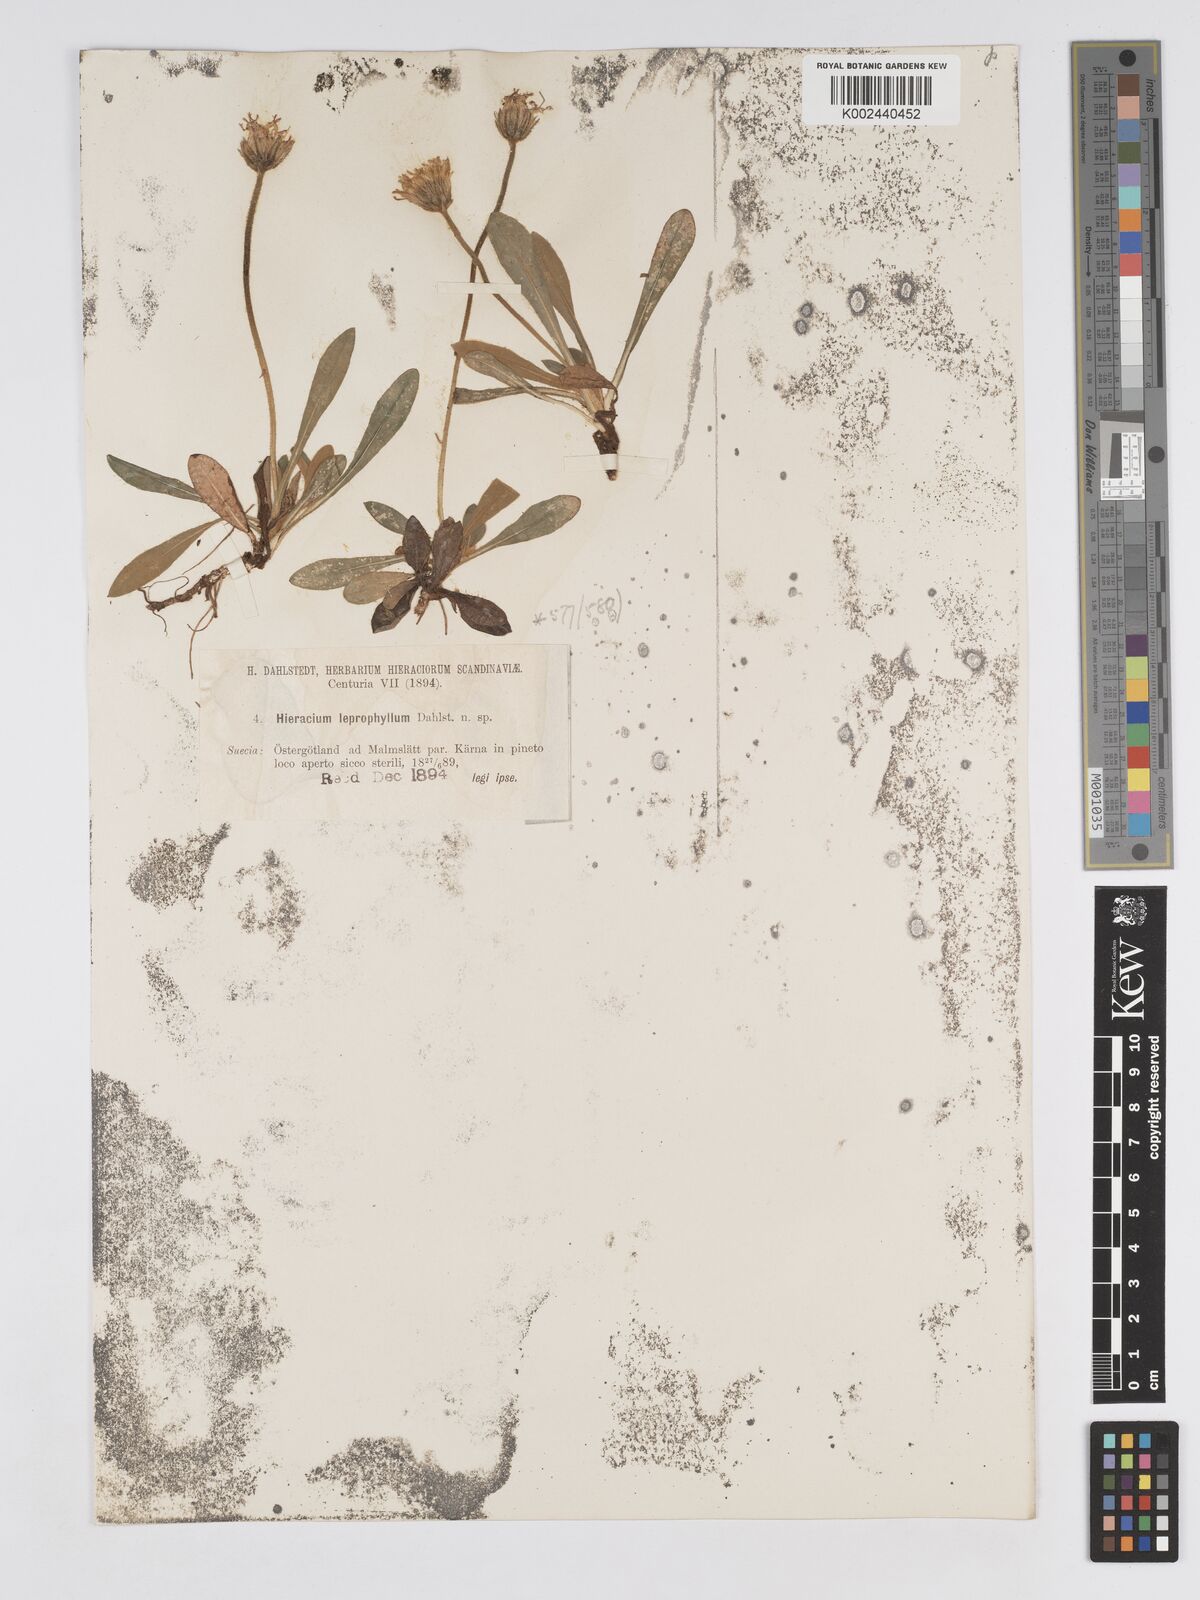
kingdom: Plantae
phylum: Tracheophyta
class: Magnoliopsida
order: Asterales
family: Asteraceae
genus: Pilosella
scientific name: Pilosella officinarum
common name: Mouse-ear hawkweed
